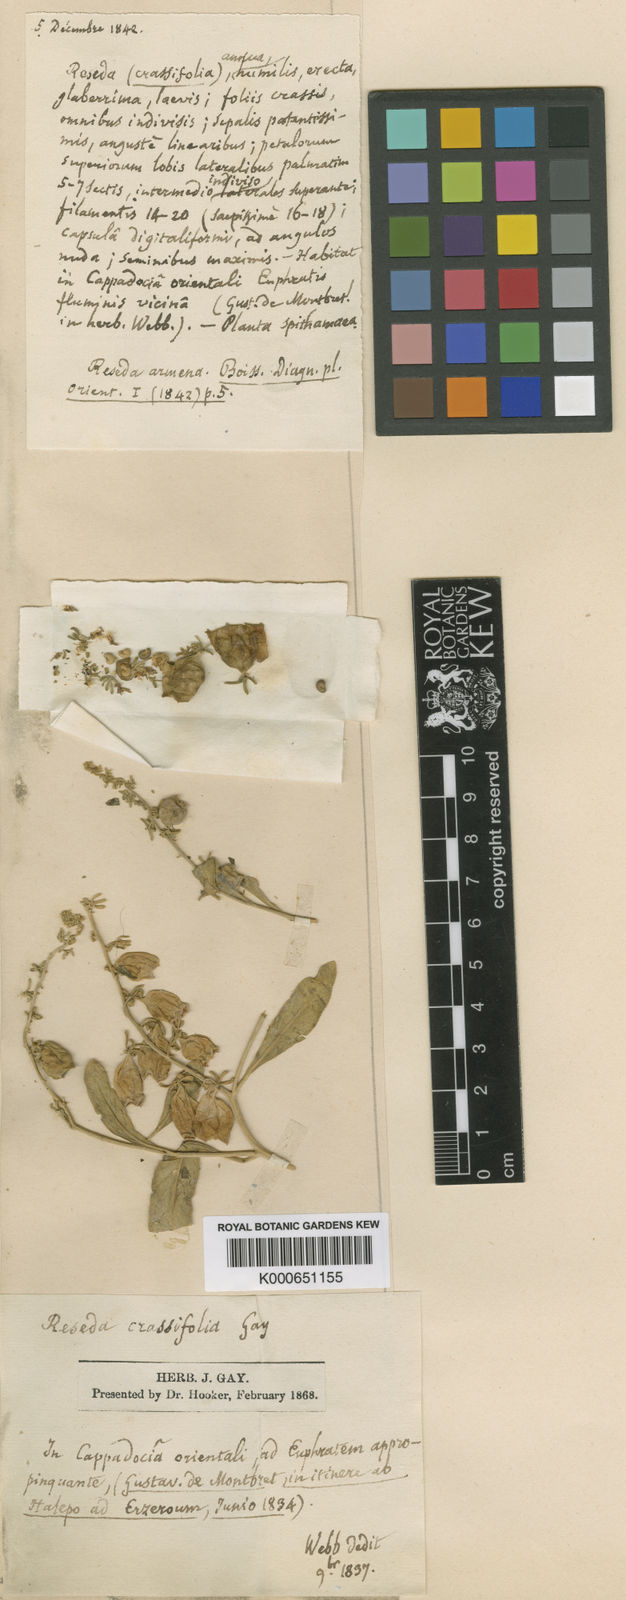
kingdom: Plantae
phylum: Tracheophyta
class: Magnoliopsida
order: Brassicales
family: Resedaceae
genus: Reseda
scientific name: Reseda armena
